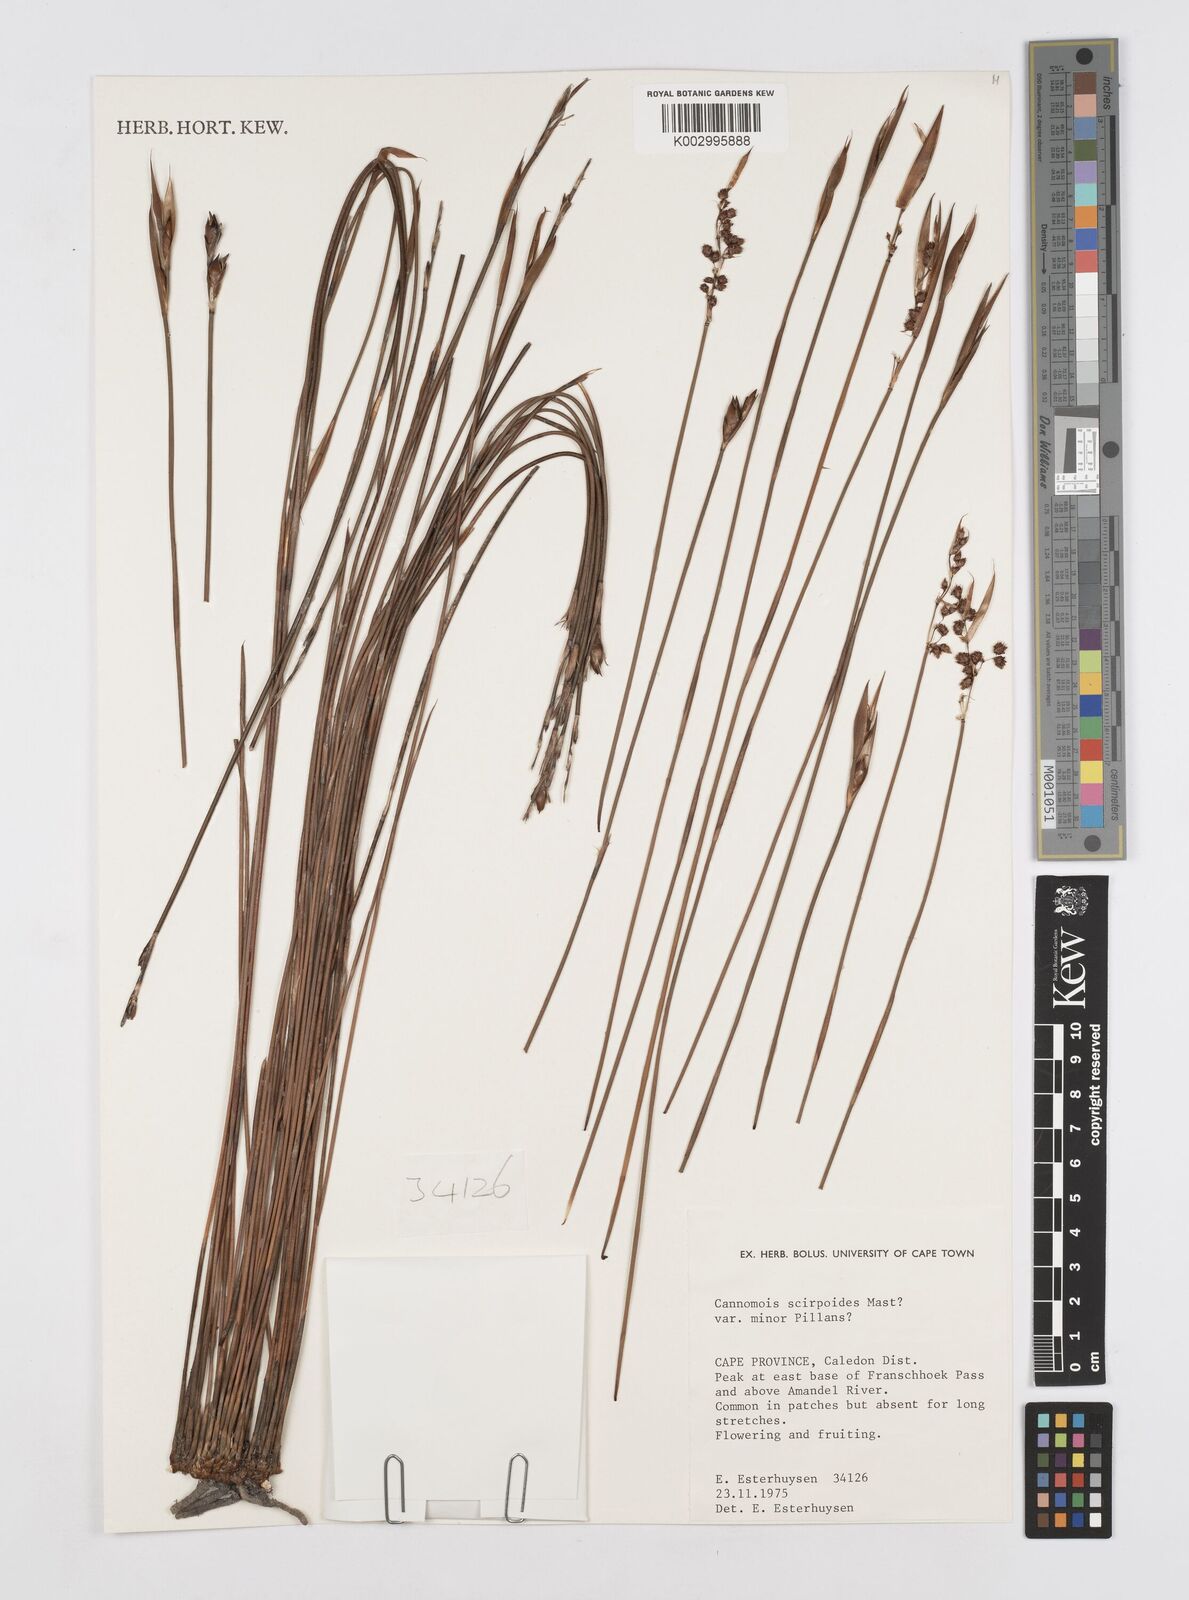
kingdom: Plantae
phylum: Tracheophyta
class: Liliopsida
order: Poales
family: Restionaceae
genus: Cannomois
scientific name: Cannomois congesta
